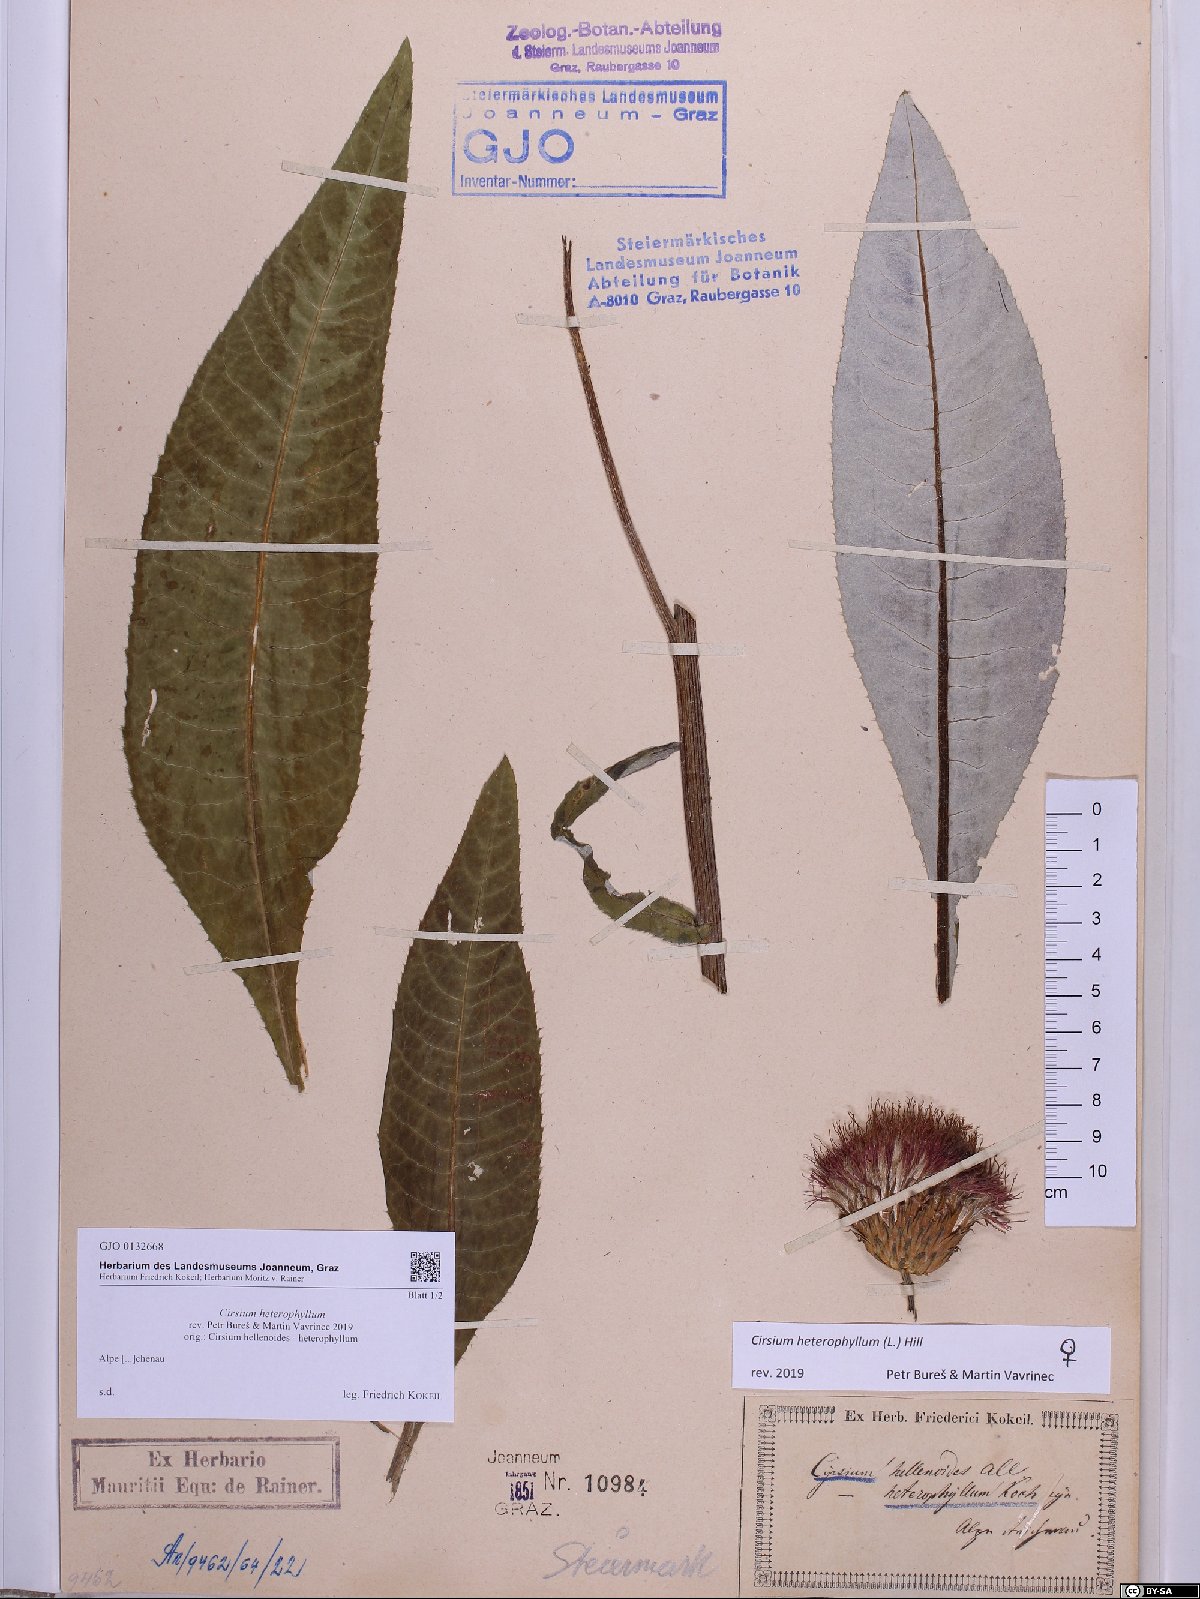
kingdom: Plantae
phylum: Tracheophyta
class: Magnoliopsida
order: Asterales
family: Asteraceae
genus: Cirsium
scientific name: Cirsium heterophyllum
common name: Melancholy thistle
